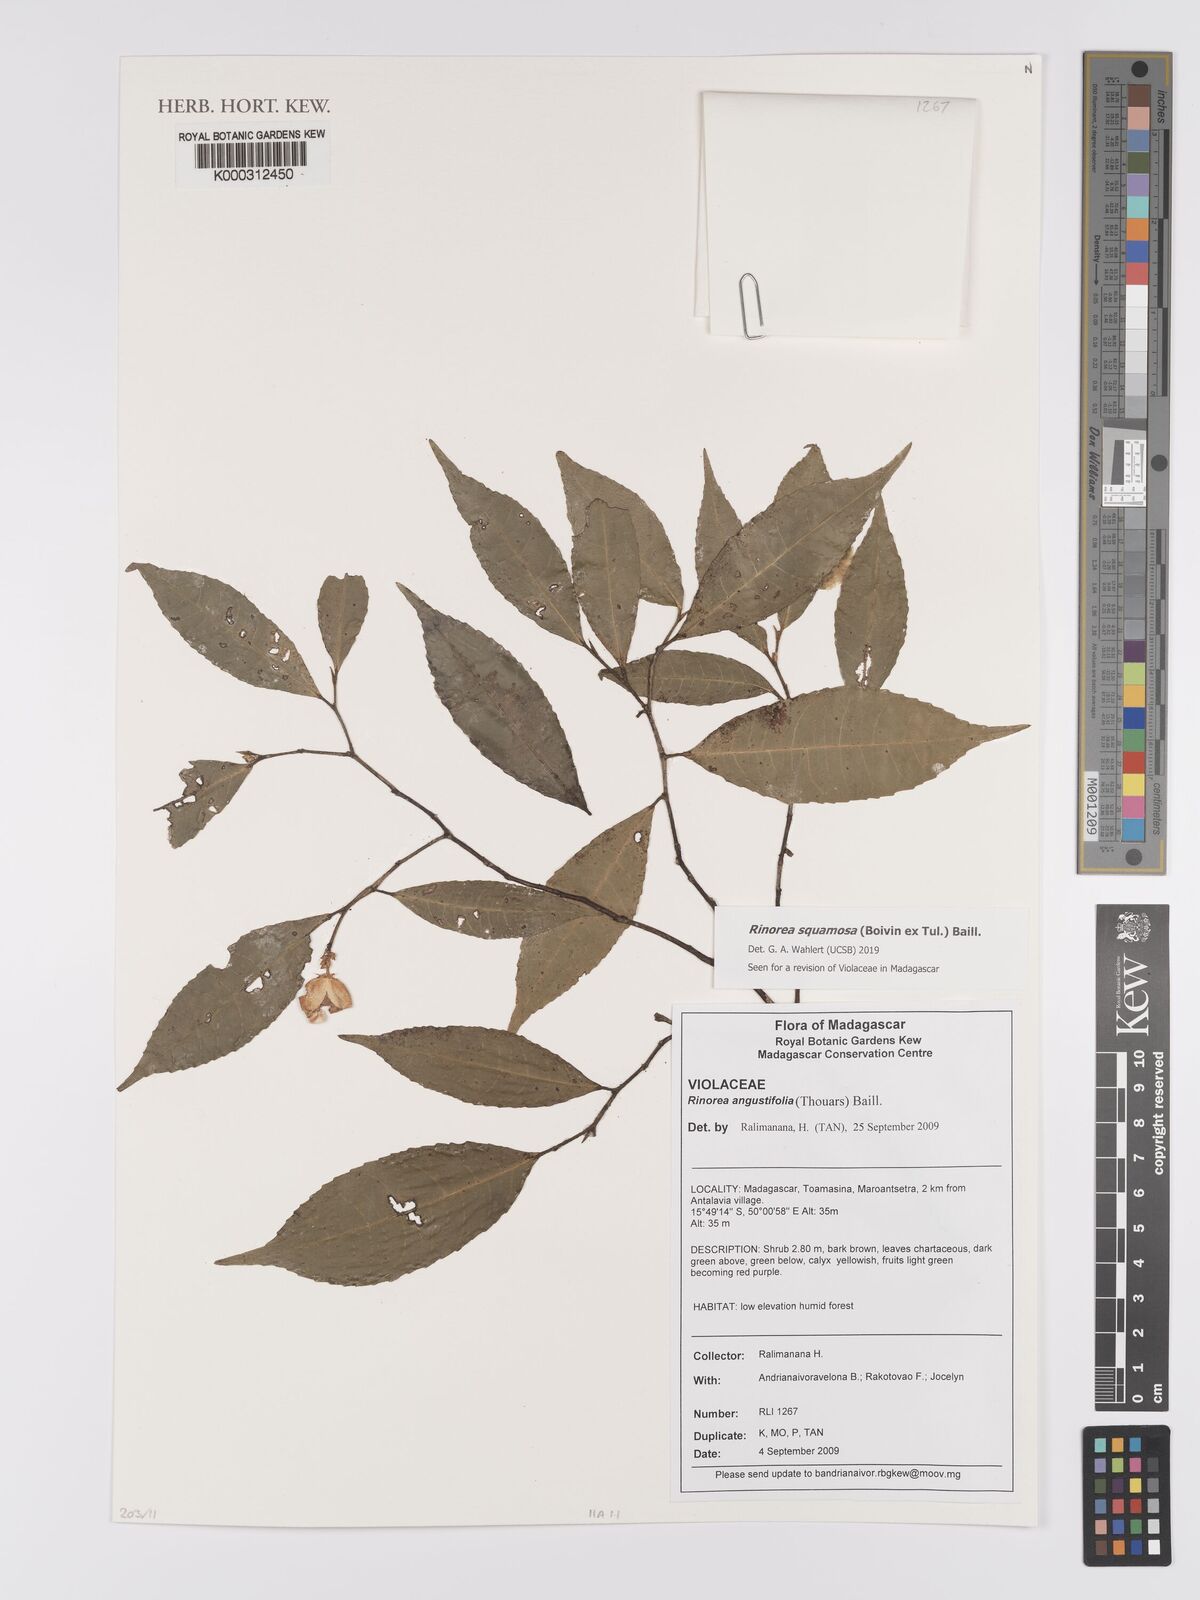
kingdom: Plantae
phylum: Tracheophyta
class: Magnoliopsida
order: Malpighiales
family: Violaceae
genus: Rinorea
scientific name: Rinorea squamosa
